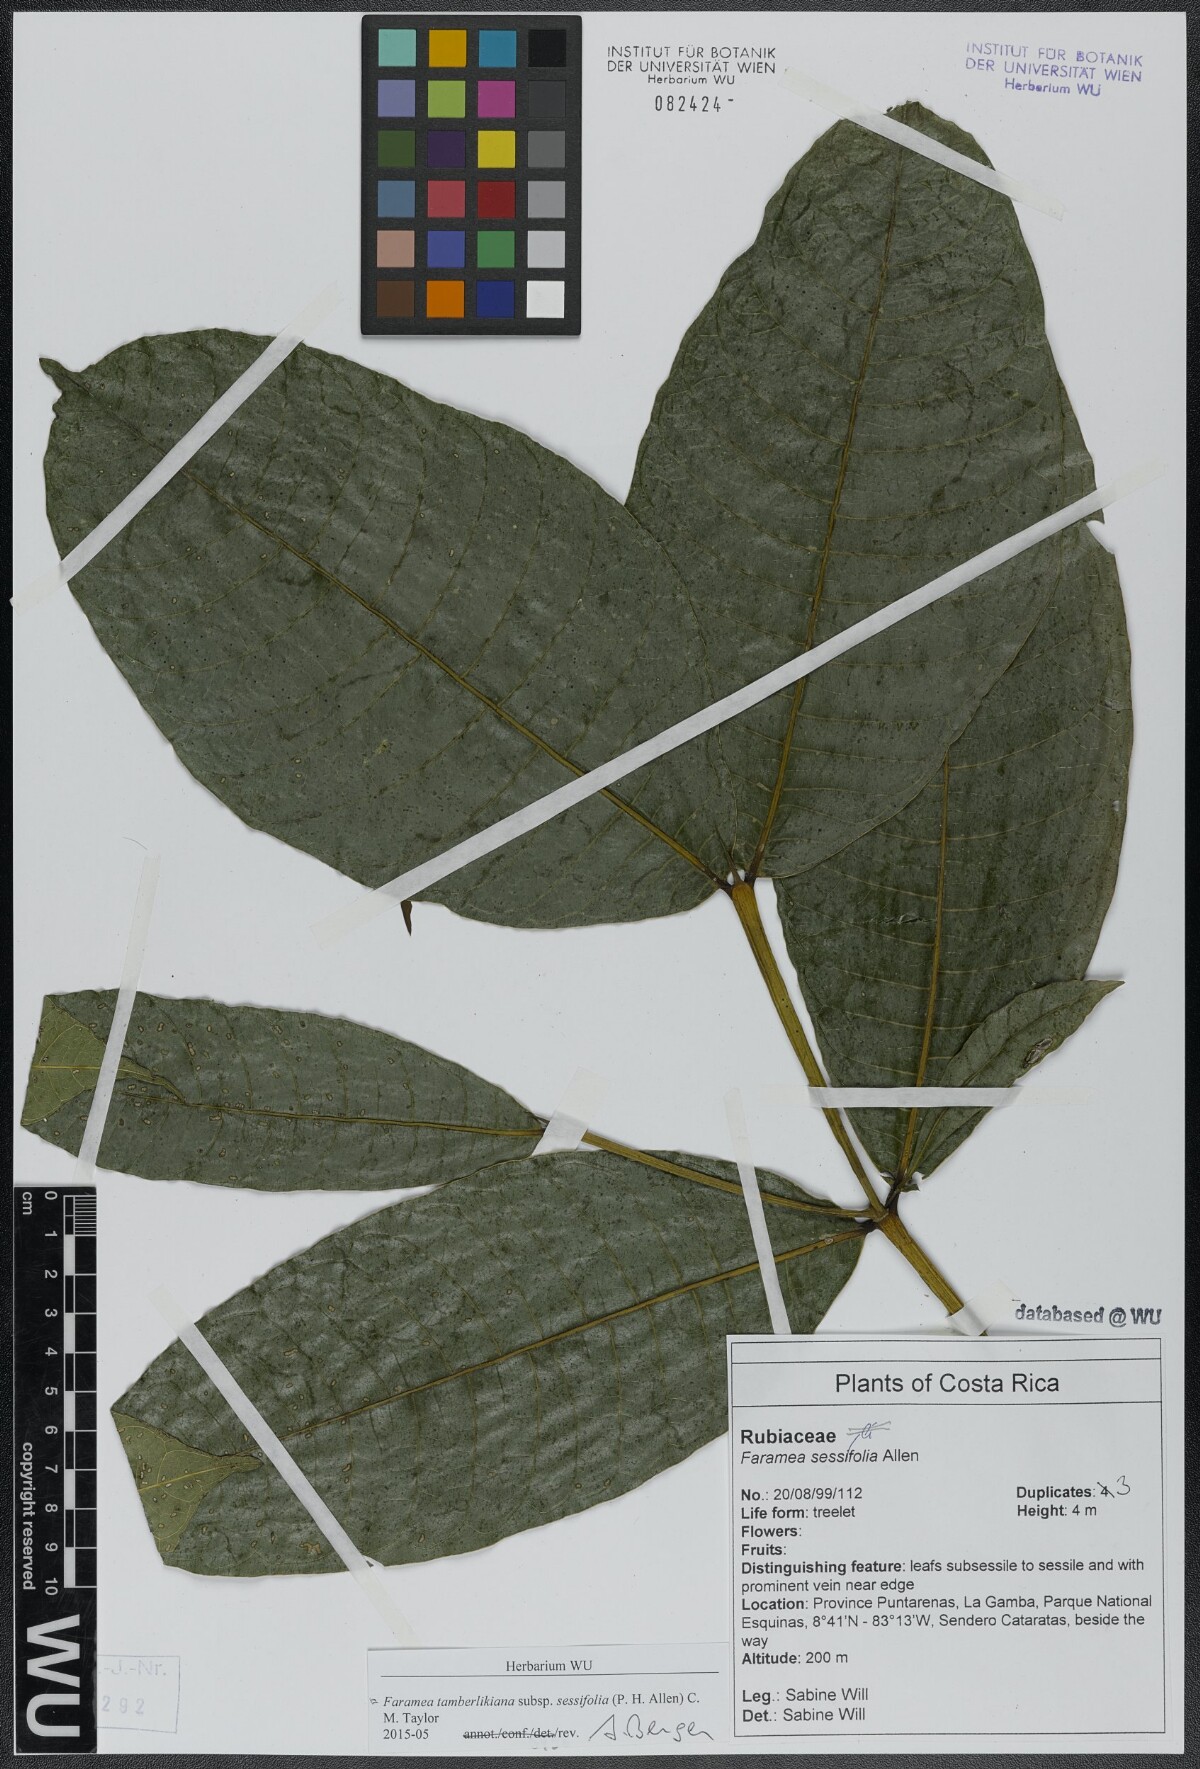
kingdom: Plantae
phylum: Tracheophyta
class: Magnoliopsida
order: Gentianales
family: Rubiaceae
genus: Faramea
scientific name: Faramea tamberlikiana
